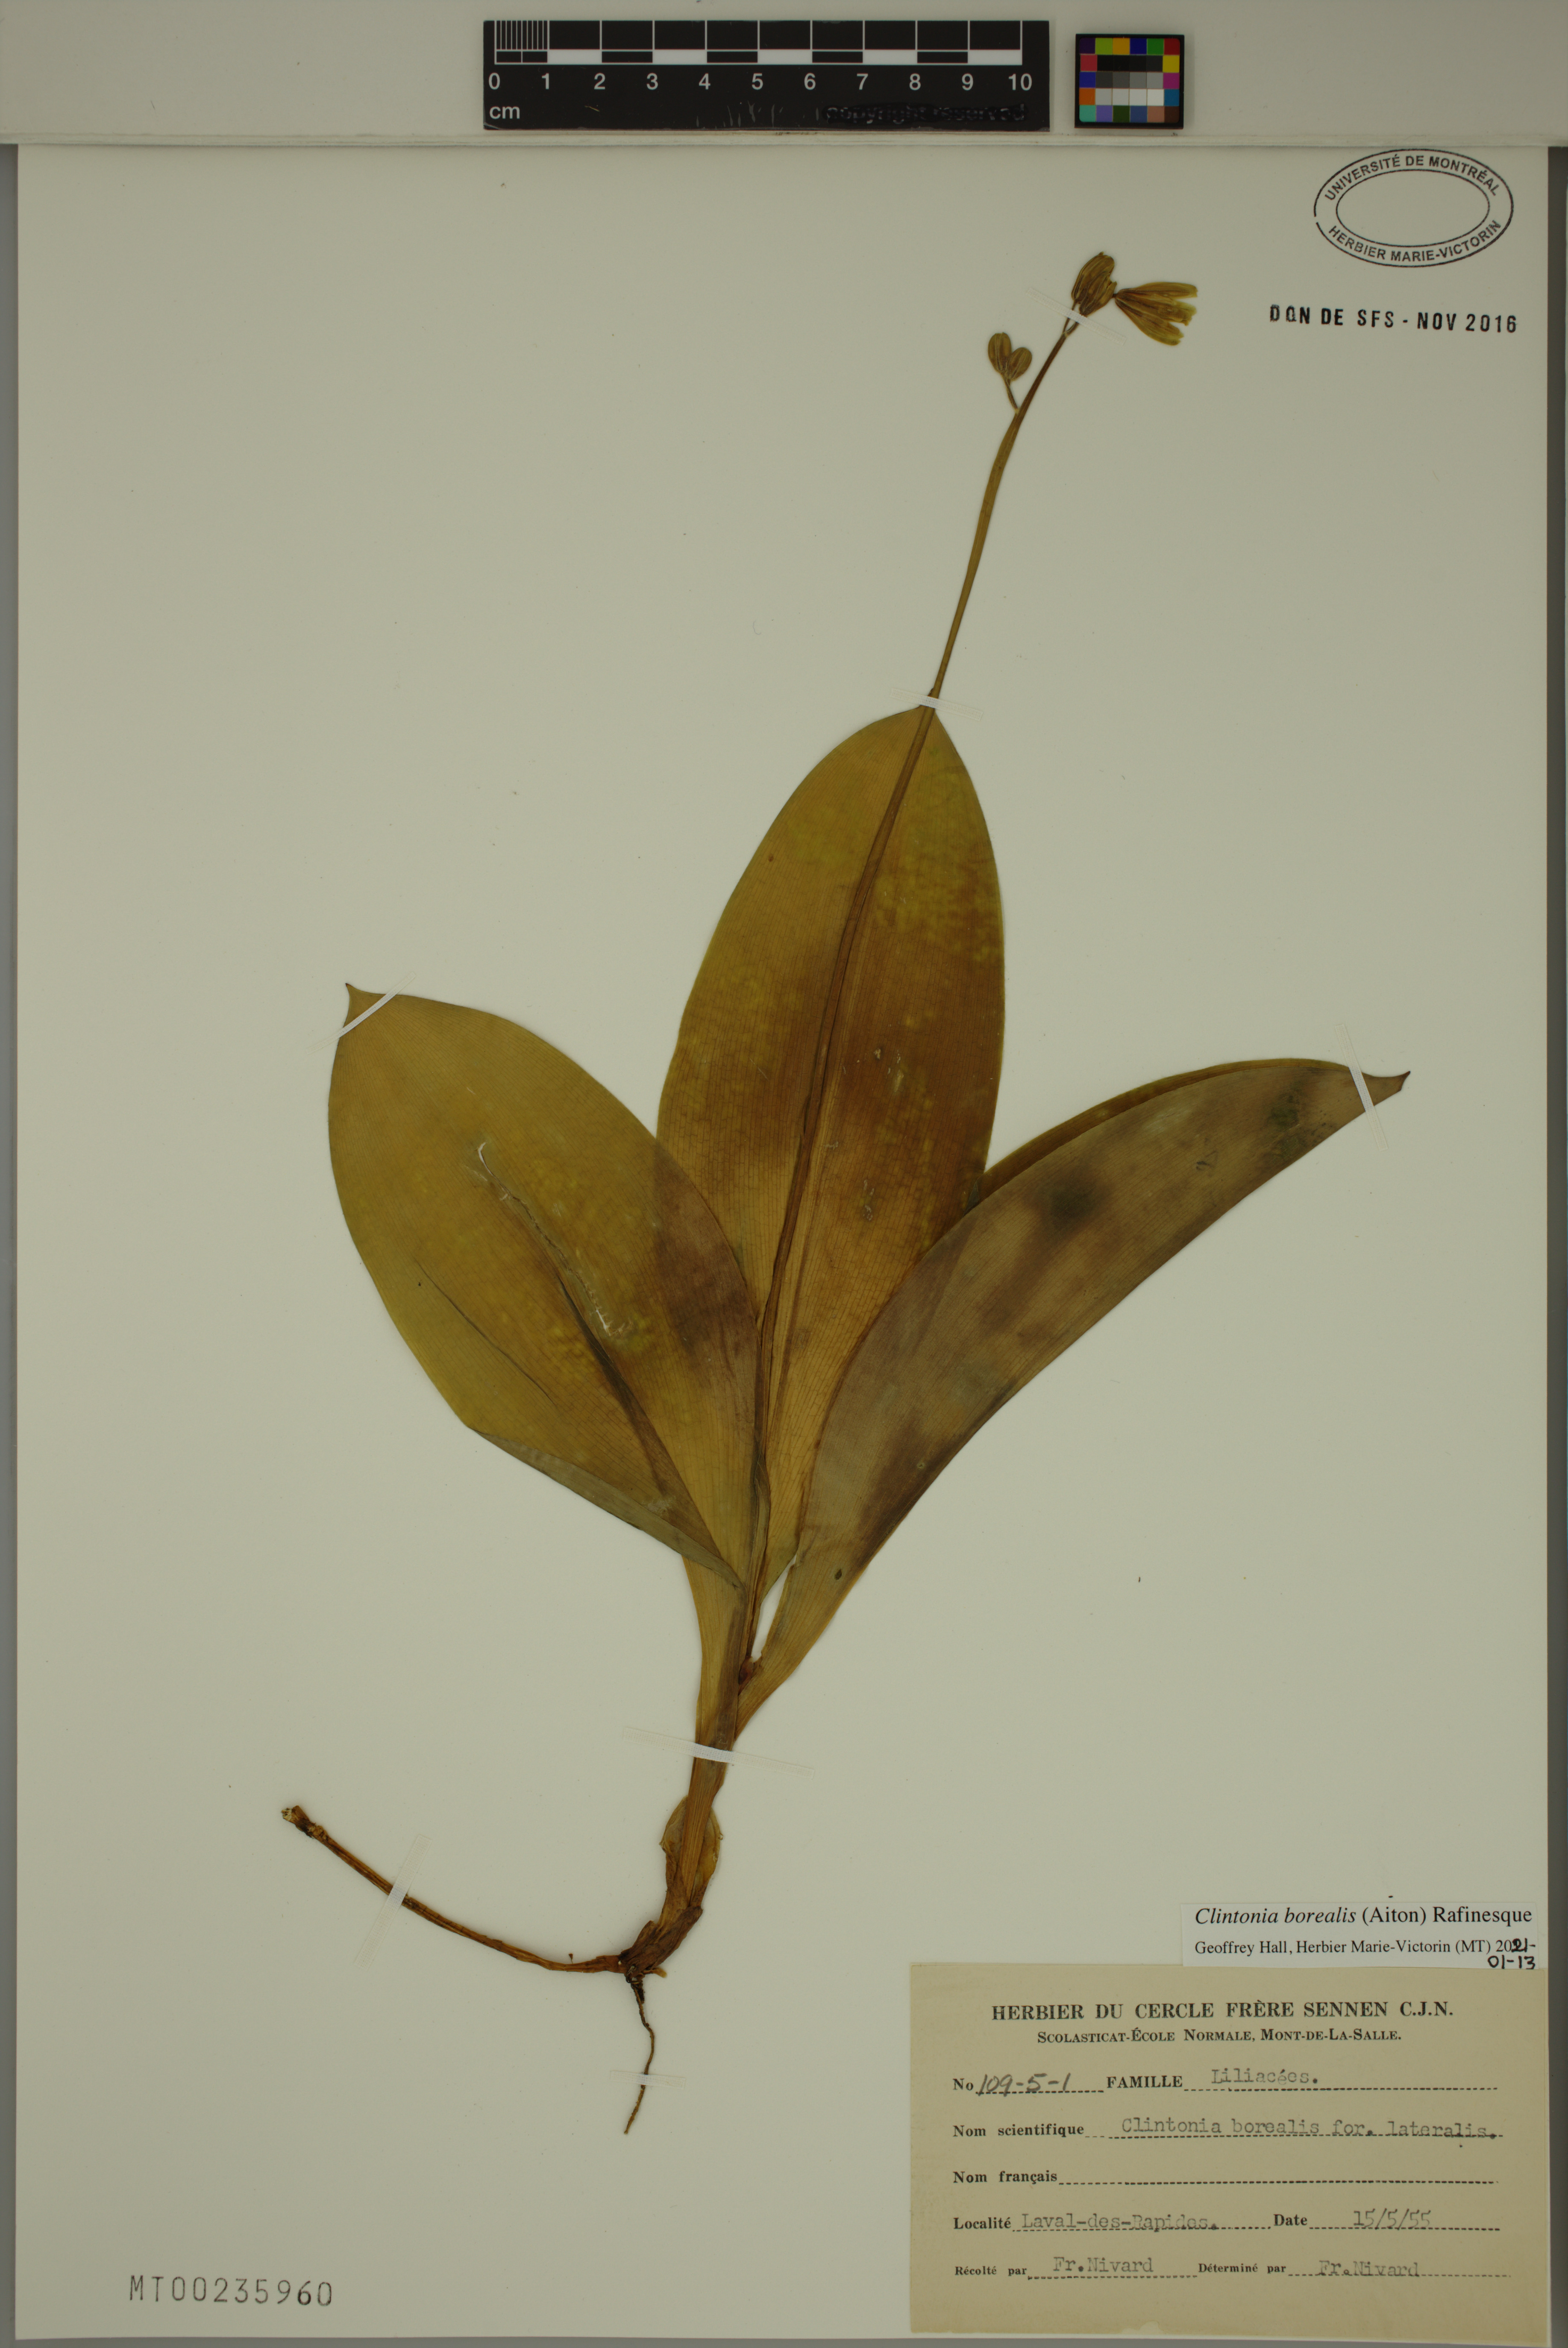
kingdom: Plantae
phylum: Tracheophyta
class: Liliopsida
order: Liliales
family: Liliaceae
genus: Clintonia
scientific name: Clintonia borealis
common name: Yellow clintonia
